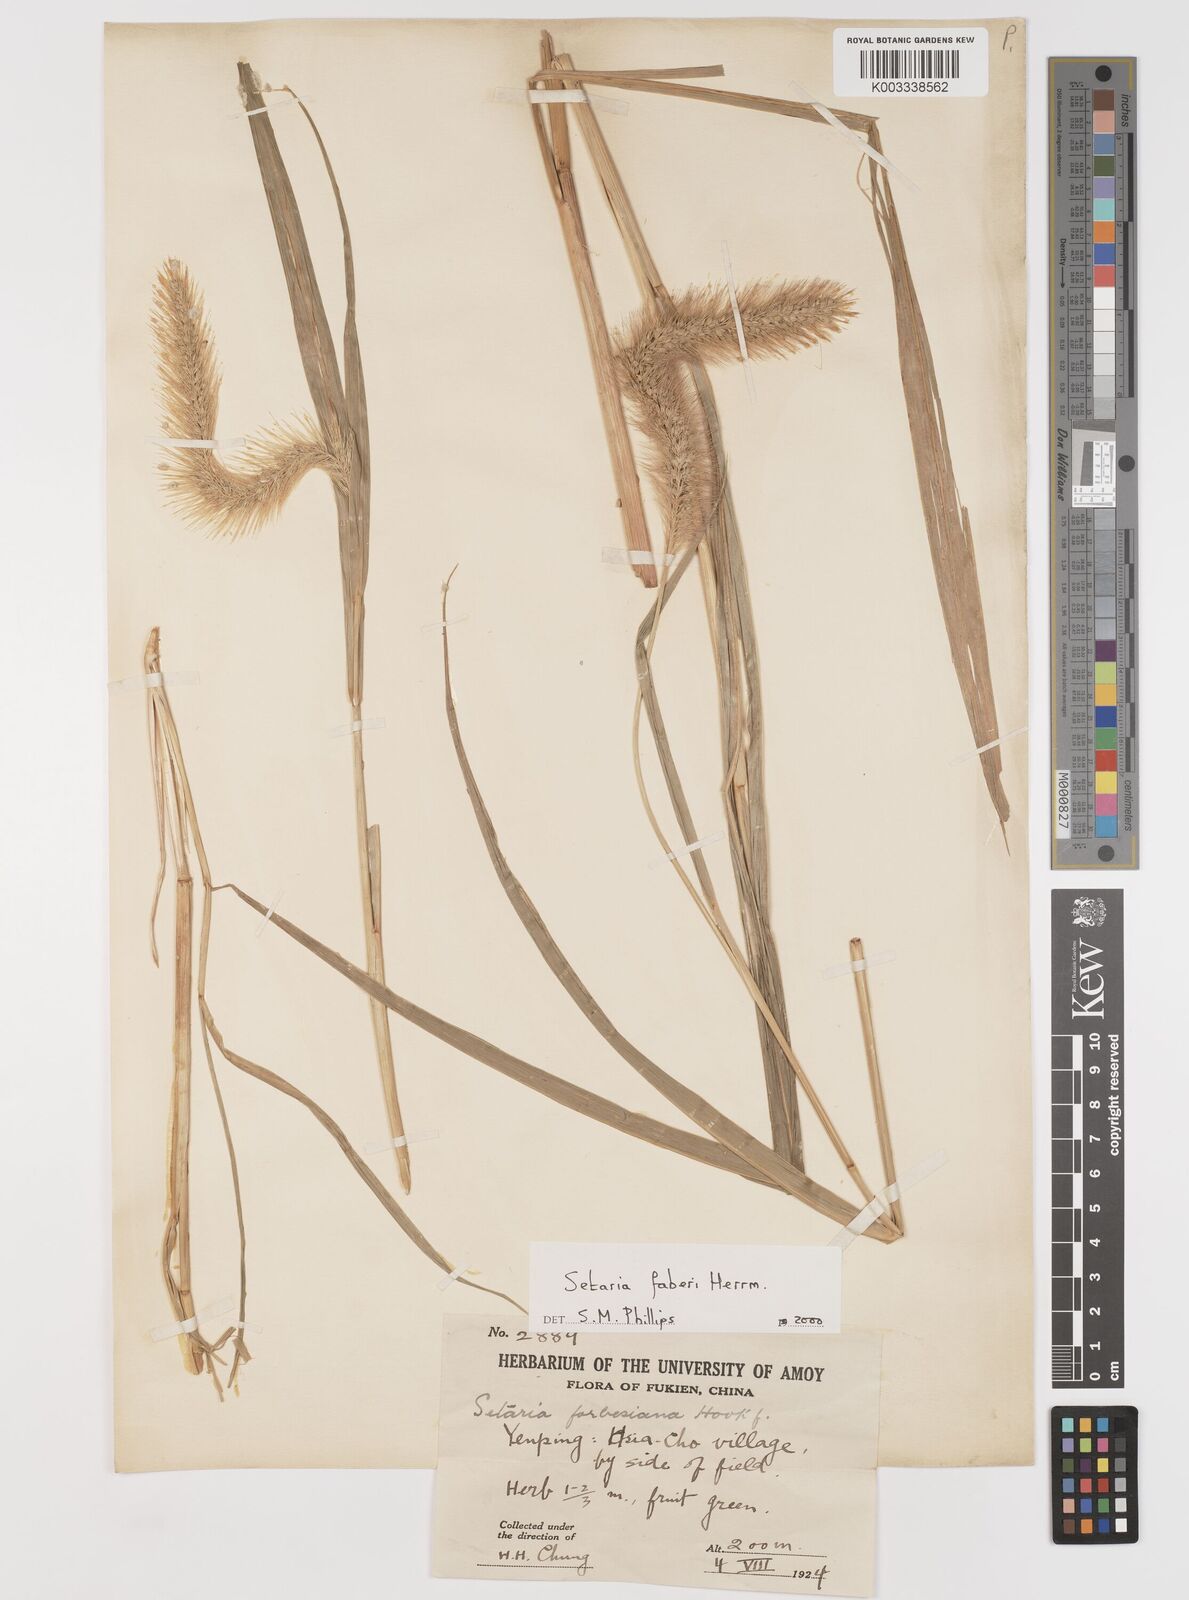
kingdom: Plantae
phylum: Tracheophyta
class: Liliopsida
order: Poales
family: Poaceae
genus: Setaria
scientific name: Setaria faberi
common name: Nodding bristle-grass
